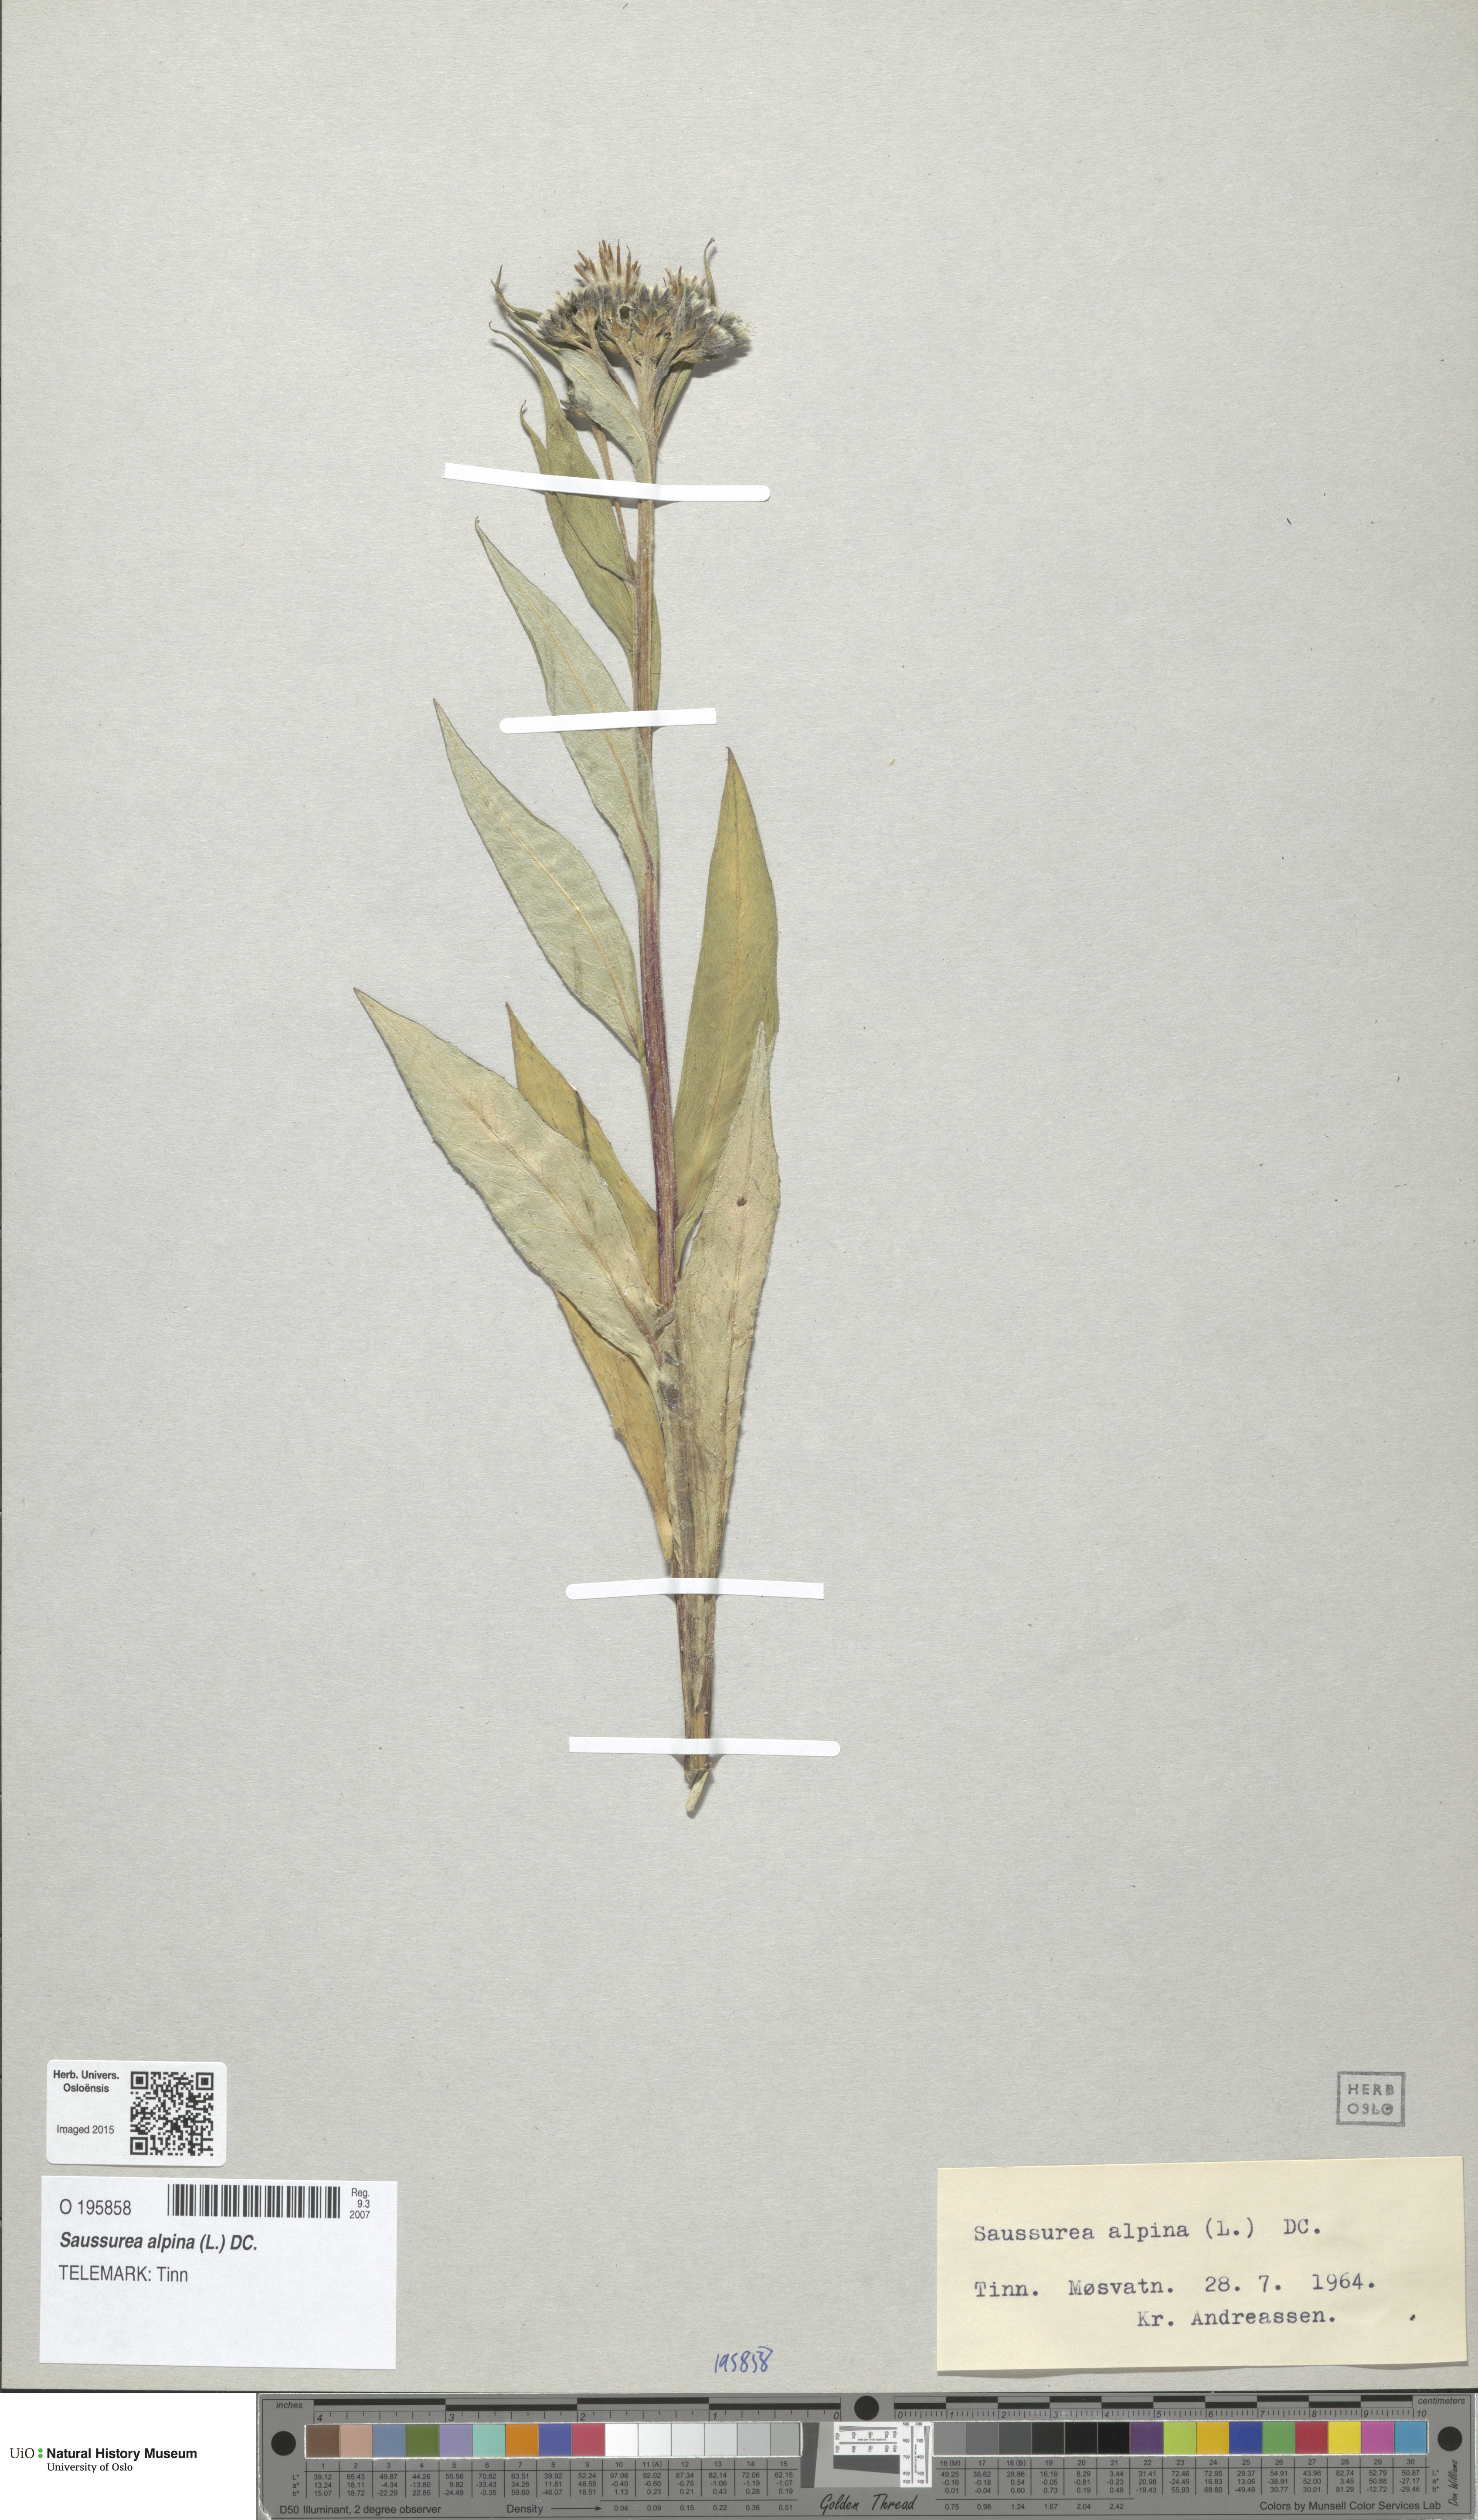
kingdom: Plantae
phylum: Tracheophyta
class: Magnoliopsida
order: Asterales
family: Asteraceae
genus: Saussurea
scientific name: Saussurea alpina
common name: Alpine saw-wort
